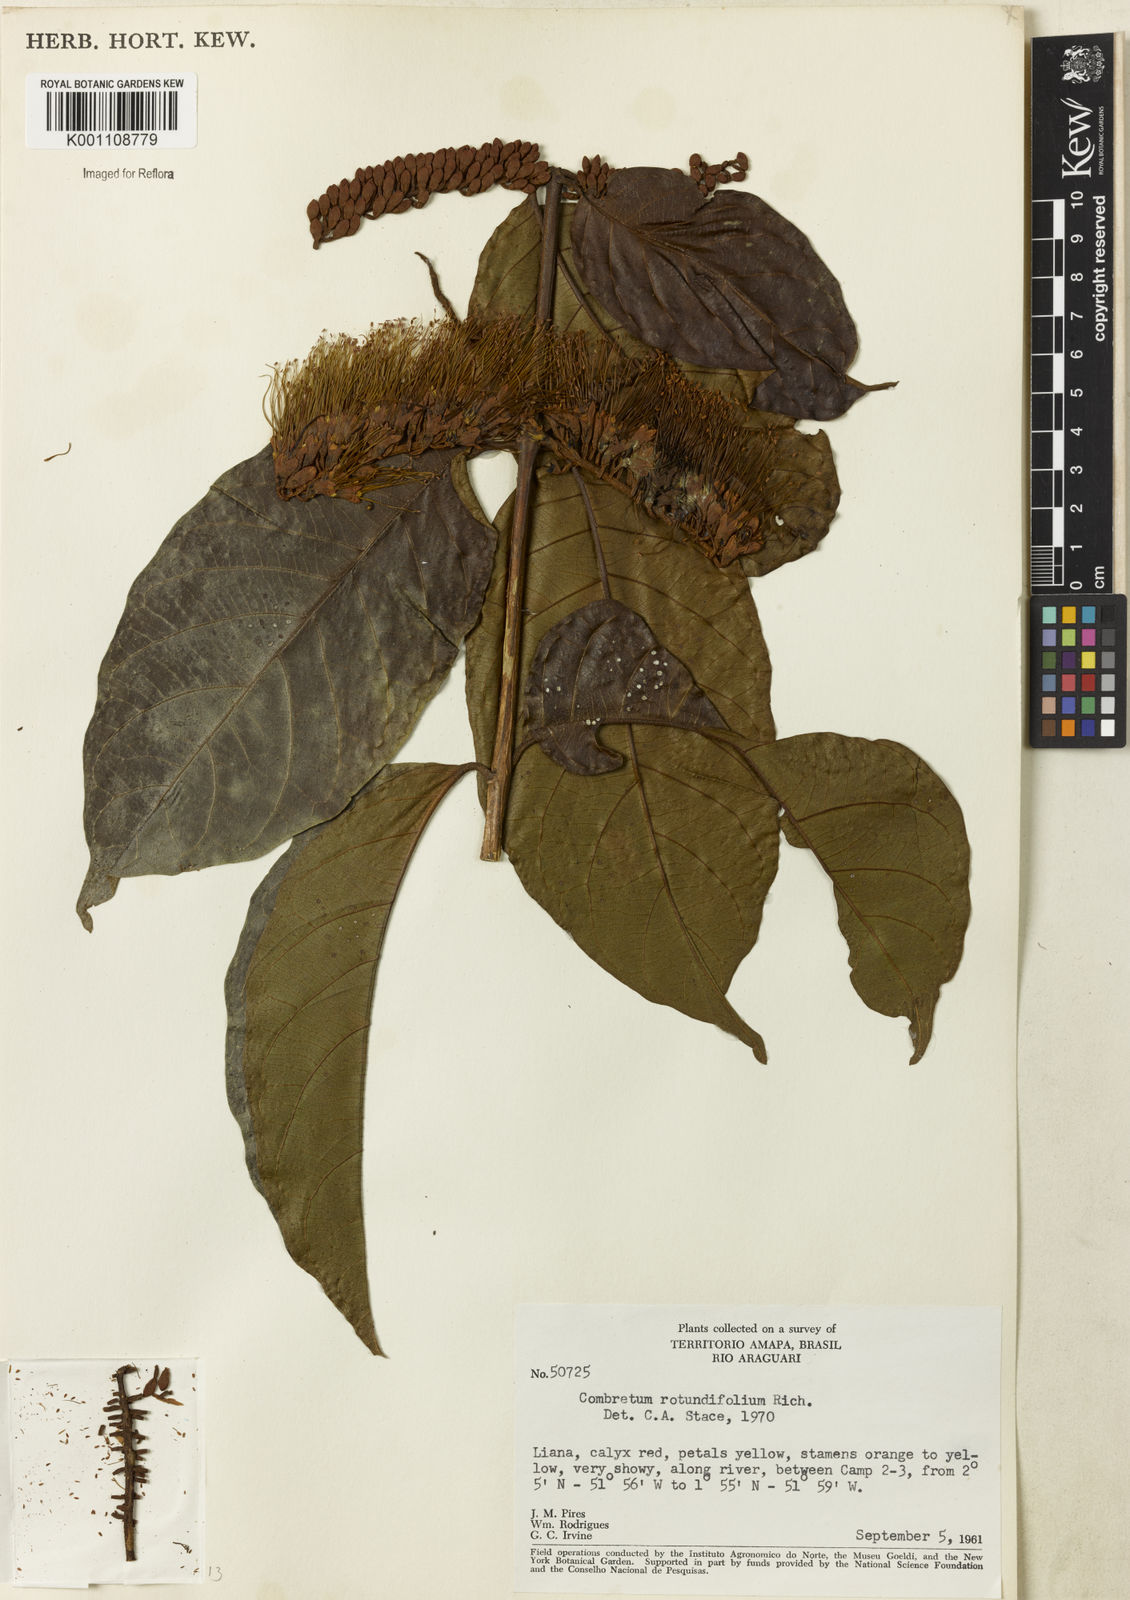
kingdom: Plantae
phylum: Tracheophyta
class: Magnoliopsida
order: Myrtales
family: Combretaceae
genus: Combretum
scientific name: Combretum rotundifolium
